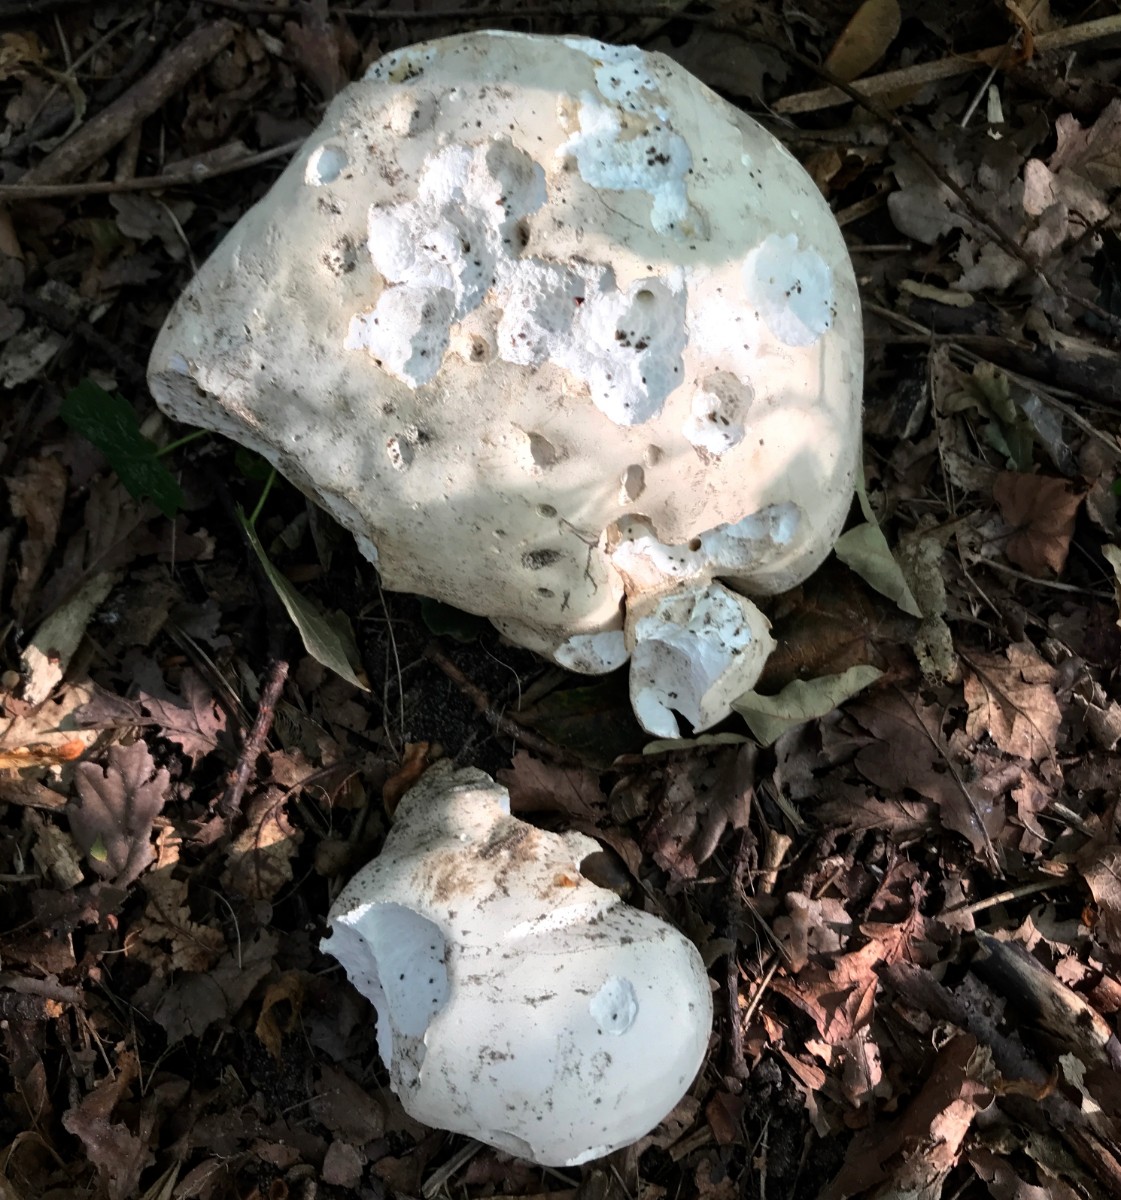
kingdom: Fungi
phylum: Basidiomycota
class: Agaricomycetes
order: Agaricales
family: Lycoperdaceae
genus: Calvatia
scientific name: Calvatia gigantea
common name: kæmpestøvbold
